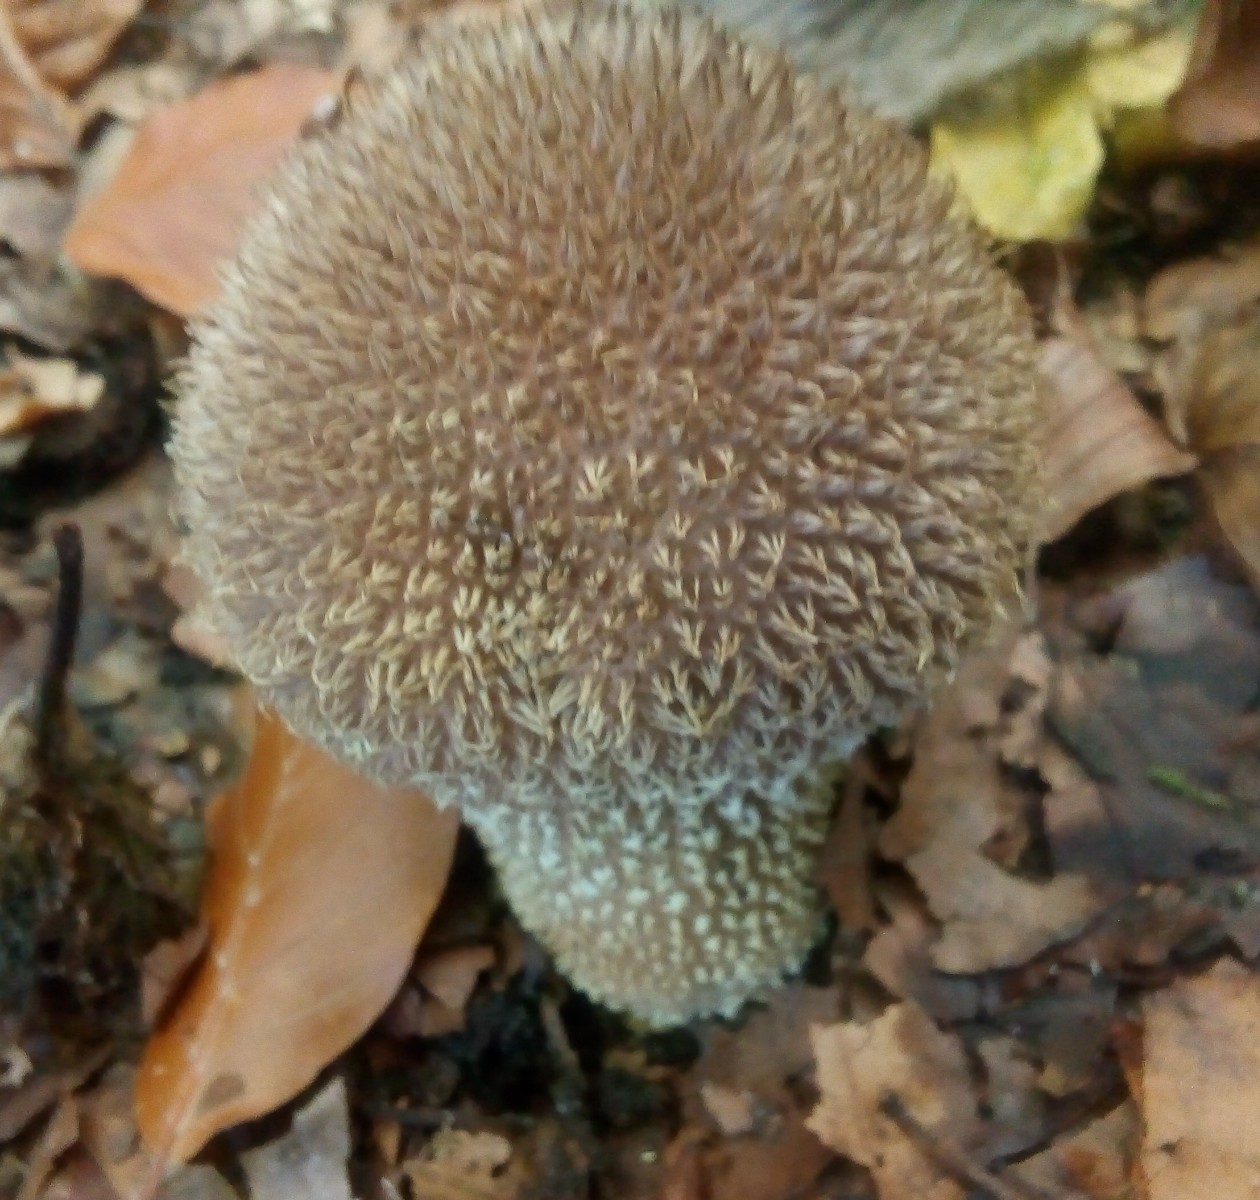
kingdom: Fungi
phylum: Basidiomycota
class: Agaricomycetes
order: Agaricales
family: Lycoperdaceae
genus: Lycoperdon
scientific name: Lycoperdon echinatum
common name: pindsvine-støvbold
